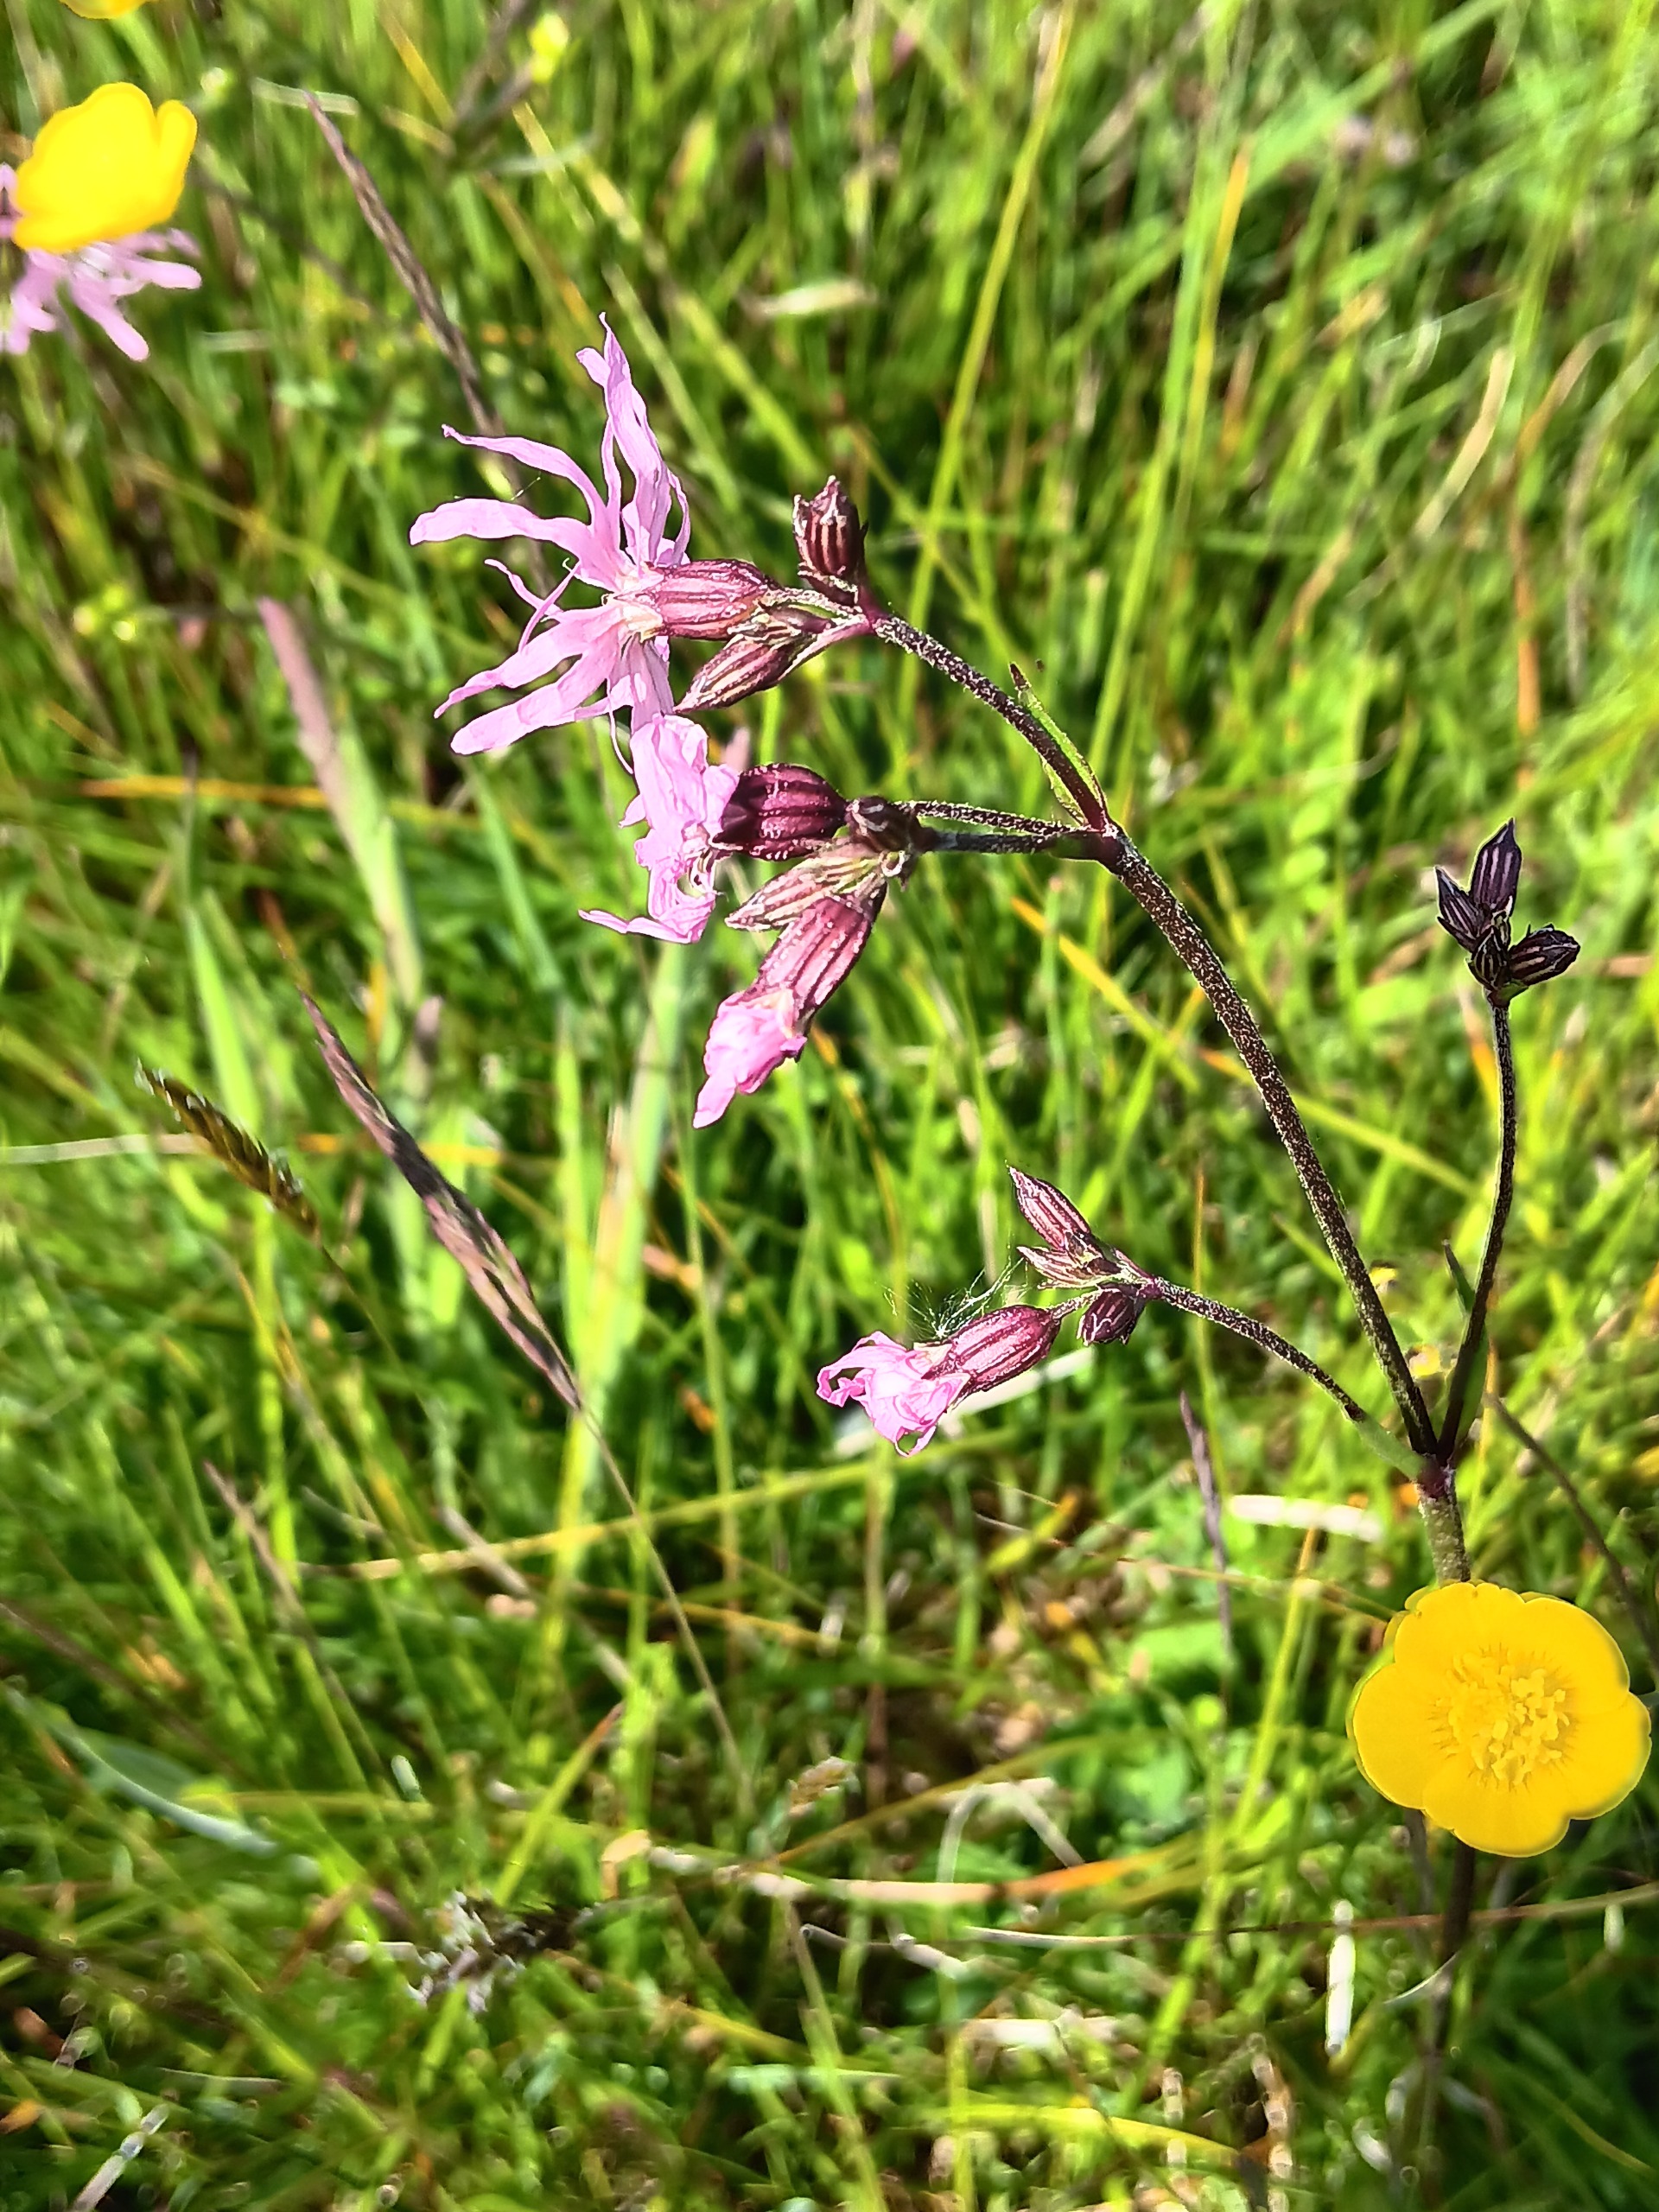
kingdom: Plantae
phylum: Tracheophyta
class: Magnoliopsida
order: Caryophyllales
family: Caryophyllaceae
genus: Silene
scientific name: Silene flos-cuculi
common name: Trævlekrone
